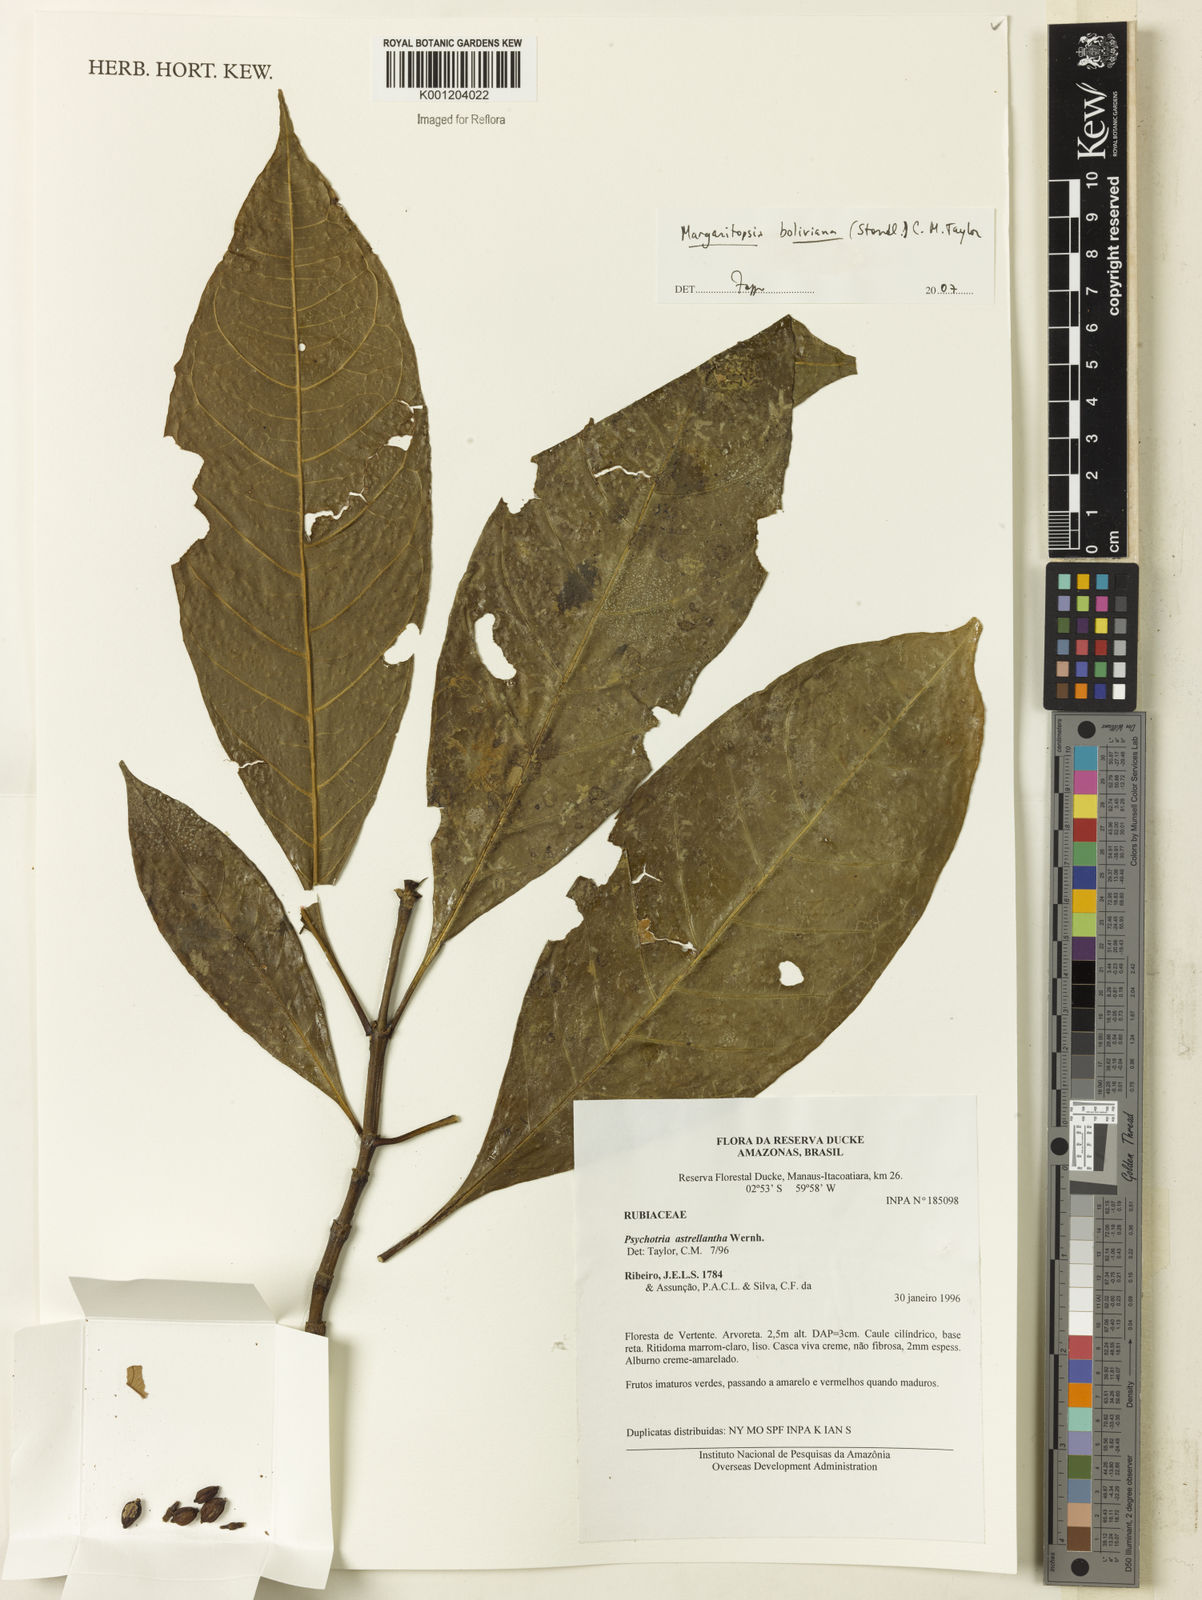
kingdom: Plantae
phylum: Tracheophyta
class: Magnoliopsida
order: Gentianales
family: Rubiaceae
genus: Eumachia
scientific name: Eumachia boliviana
